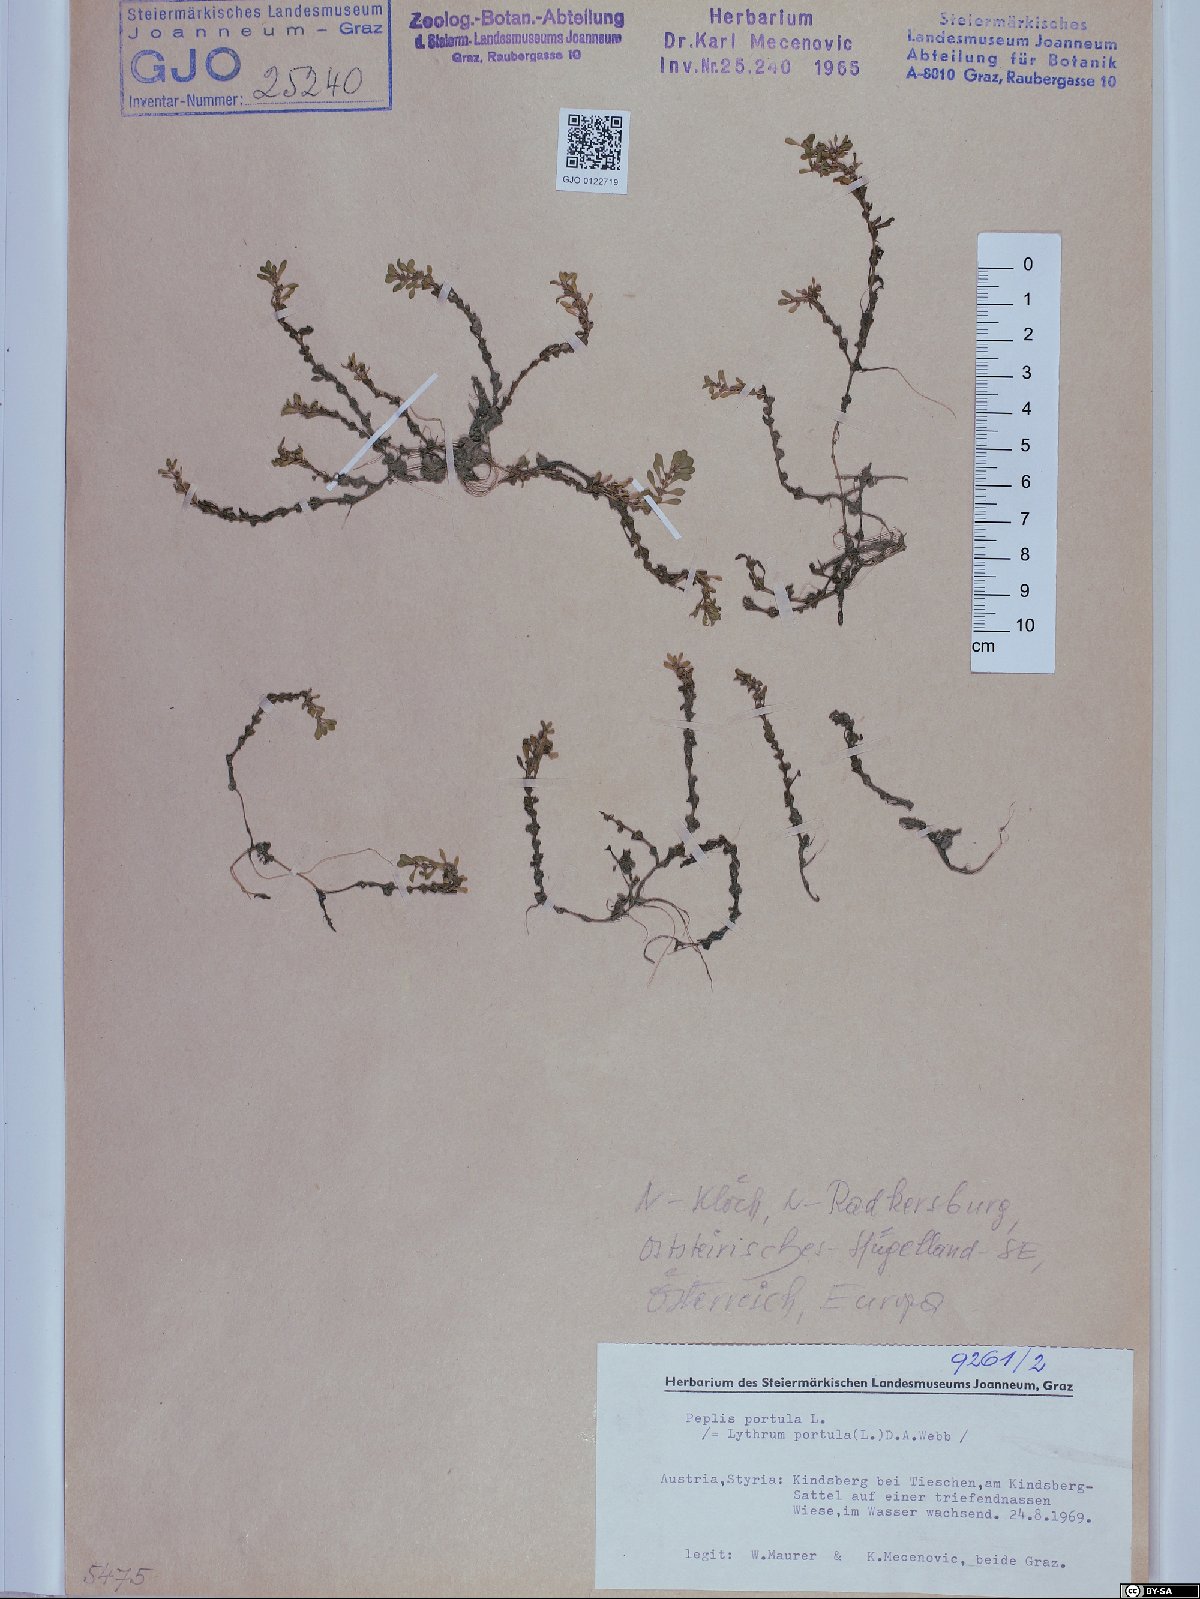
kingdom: Plantae
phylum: Tracheophyta
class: Magnoliopsida
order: Myrtales
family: Lythraceae
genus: Lythrum
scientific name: Lythrum portula
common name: Water purslane
